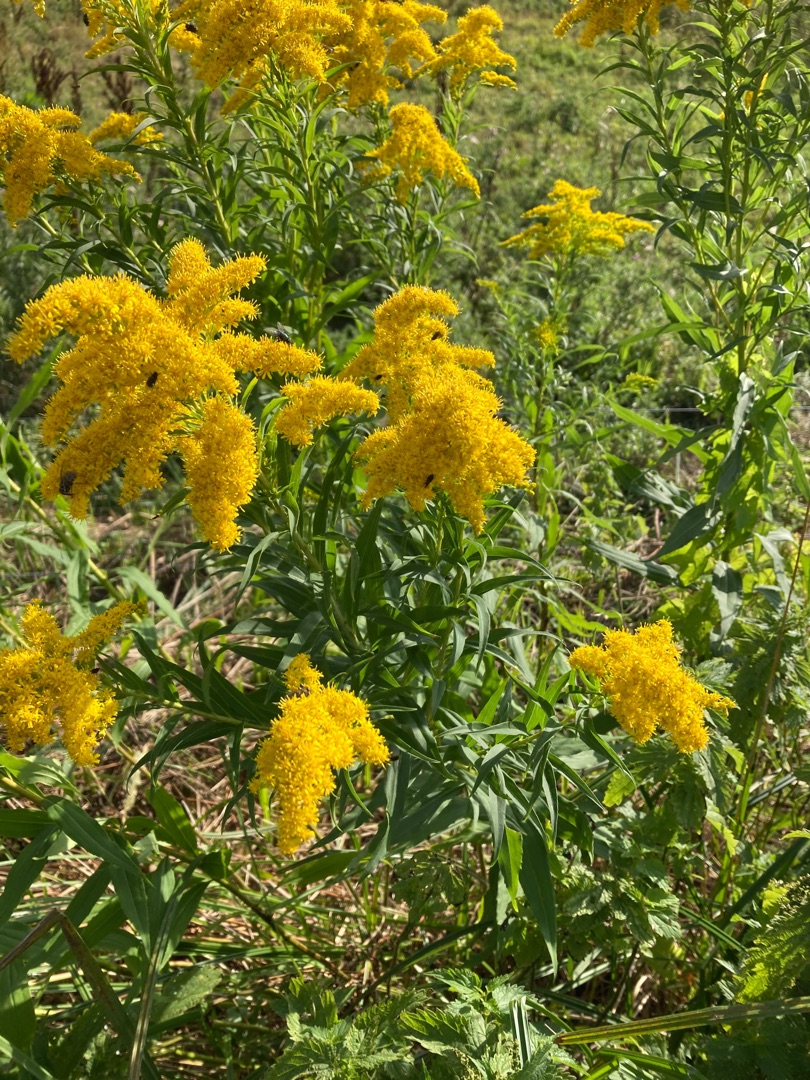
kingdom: Plantae
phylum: Tracheophyta
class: Magnoliopsida
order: Asterales
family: Asteraceae
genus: Solidago
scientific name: Solidago gigantea
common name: Sildig gyldenris
